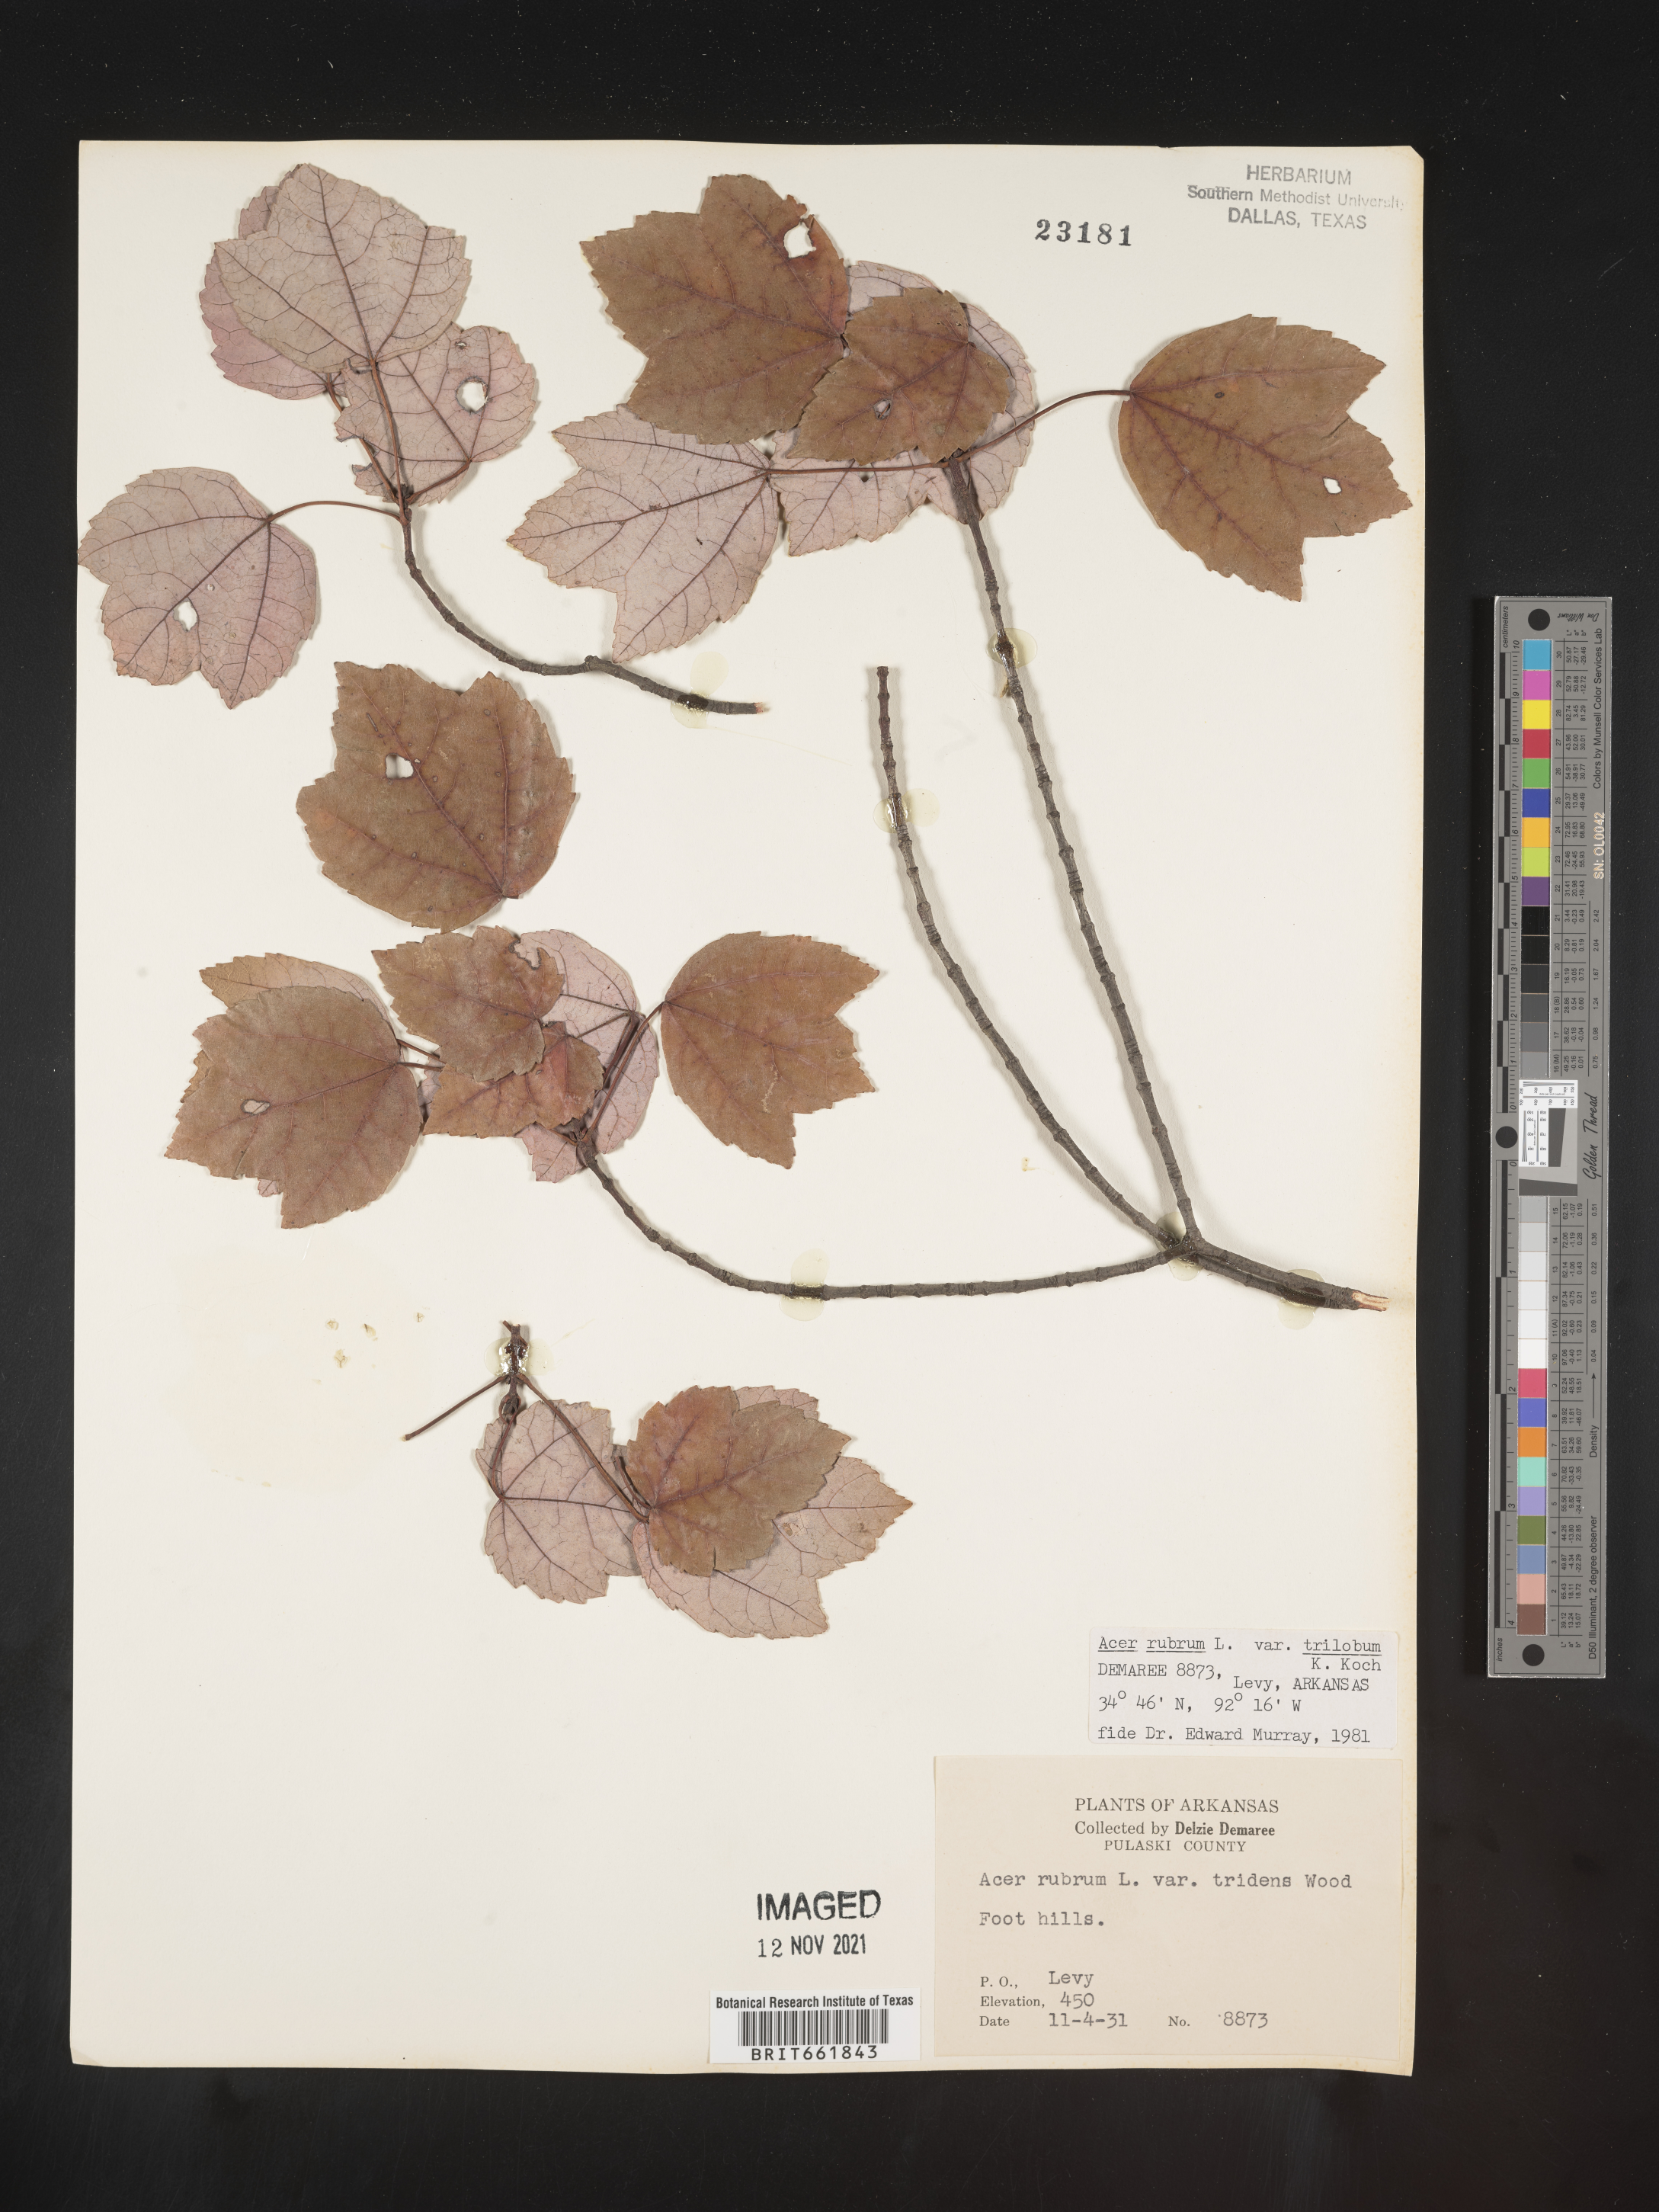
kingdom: Plantae
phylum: Tracheophyta
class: Magnoliopsida
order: Sapindales
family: Sapindaceae
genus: Acer
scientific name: Acer rubrum
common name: Red maple
